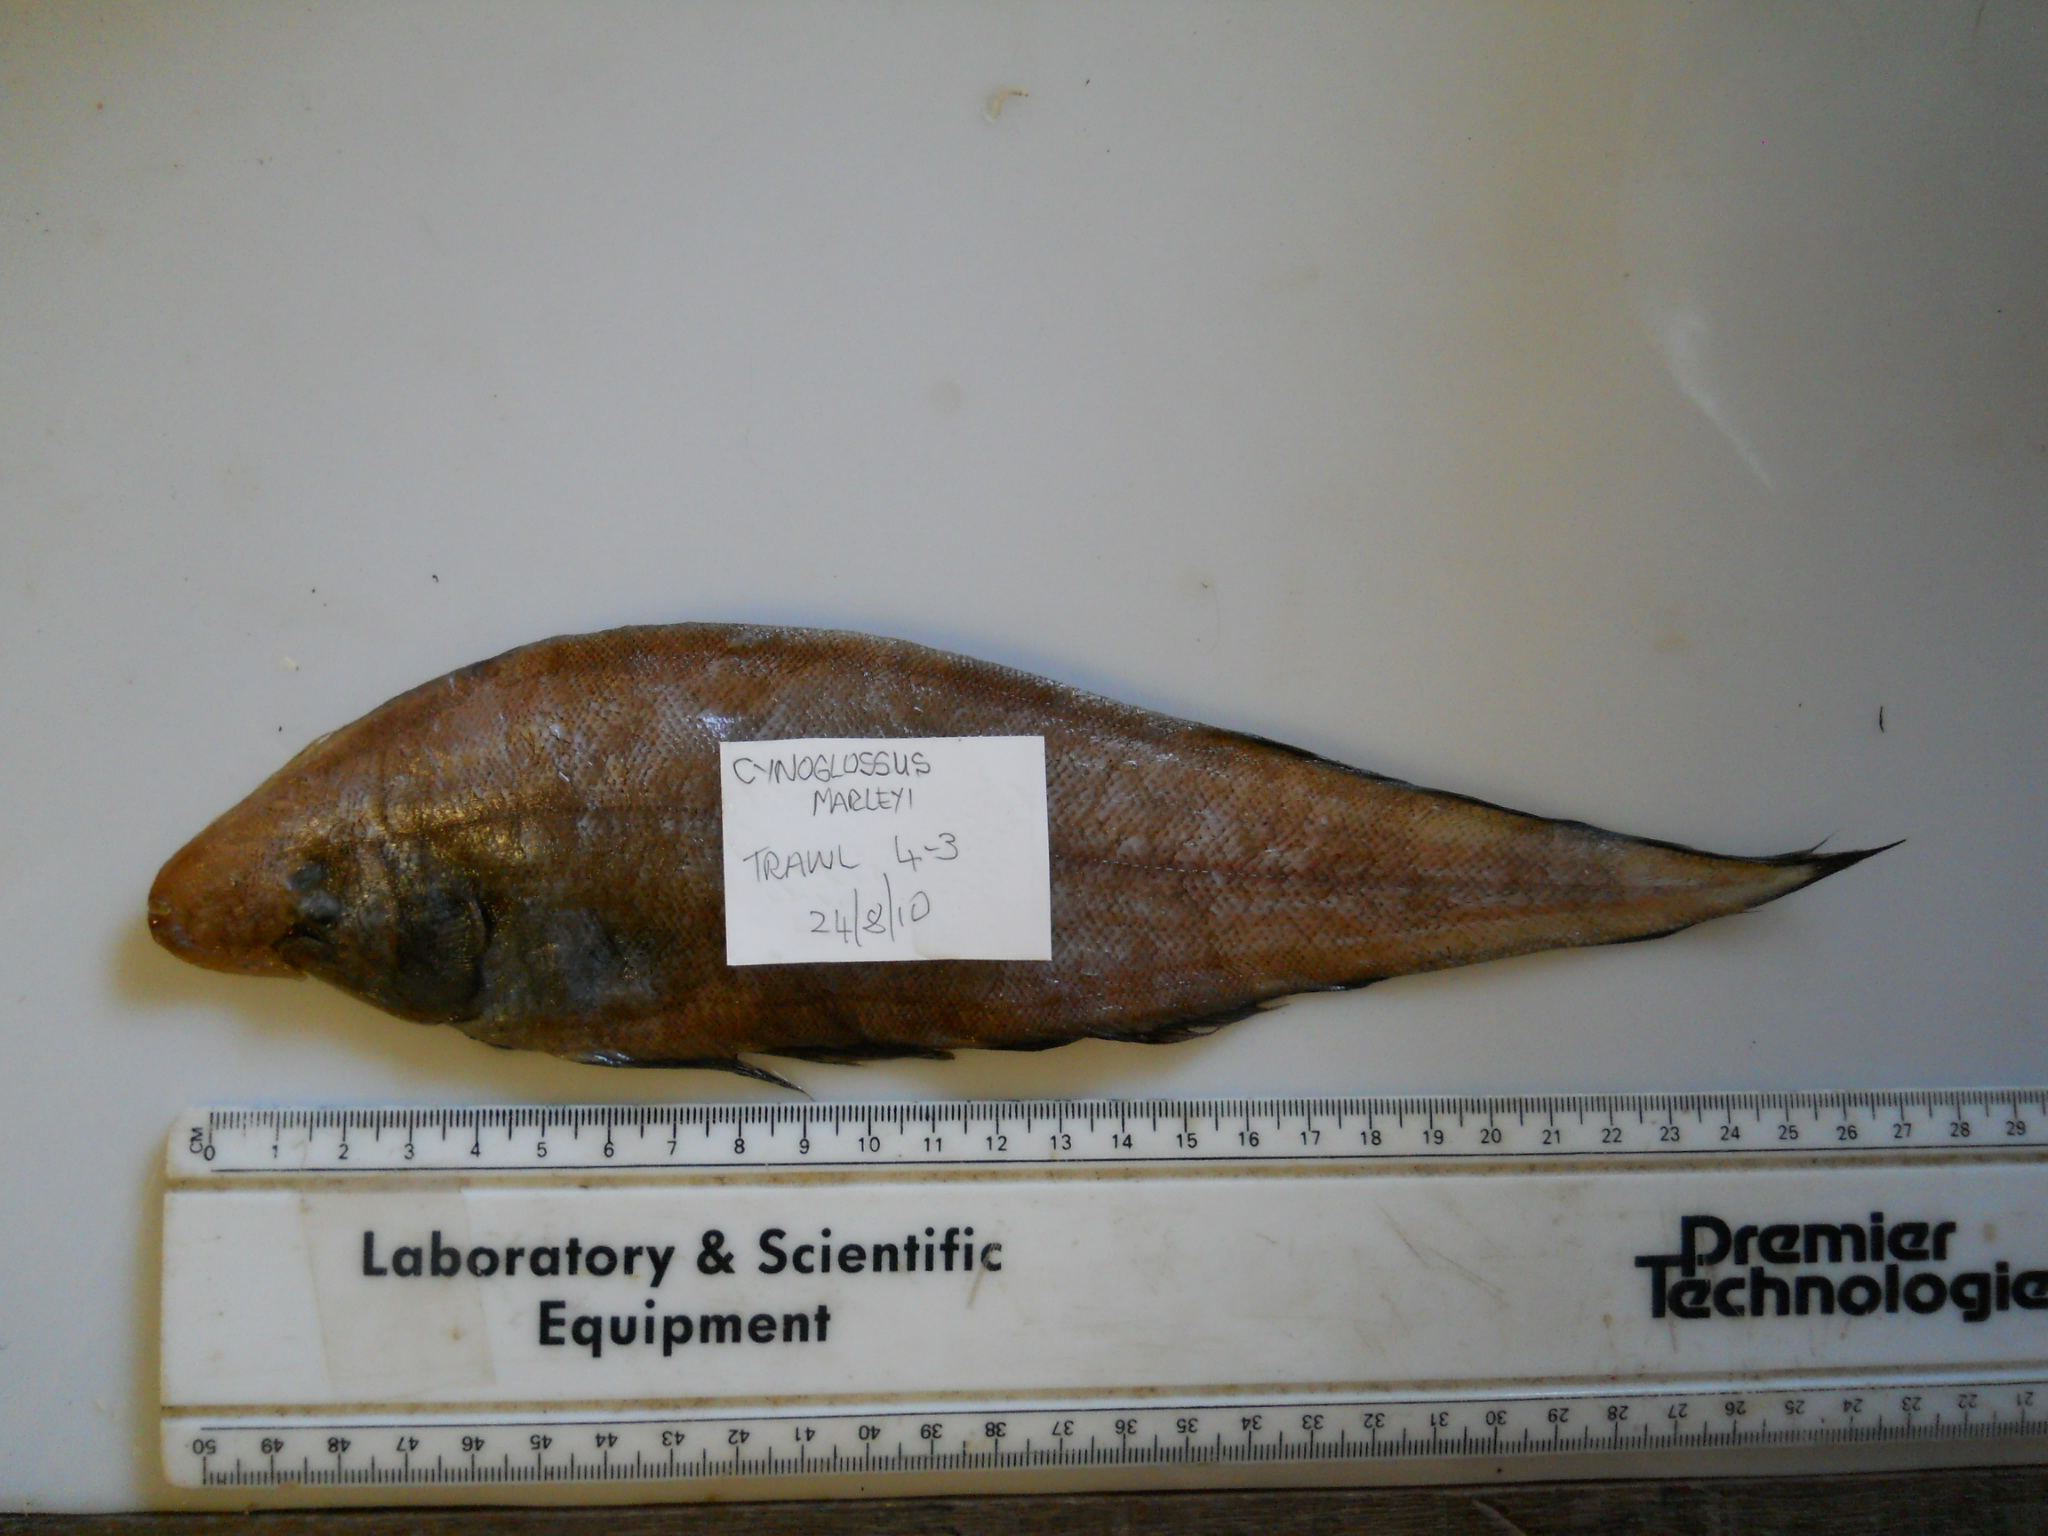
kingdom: Animalia
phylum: Chordata
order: Pleuronectiformes
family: Cynoglossidae
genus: Cynoglossus
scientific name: Cynoglossus marleyi
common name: Threeline tonguesole
